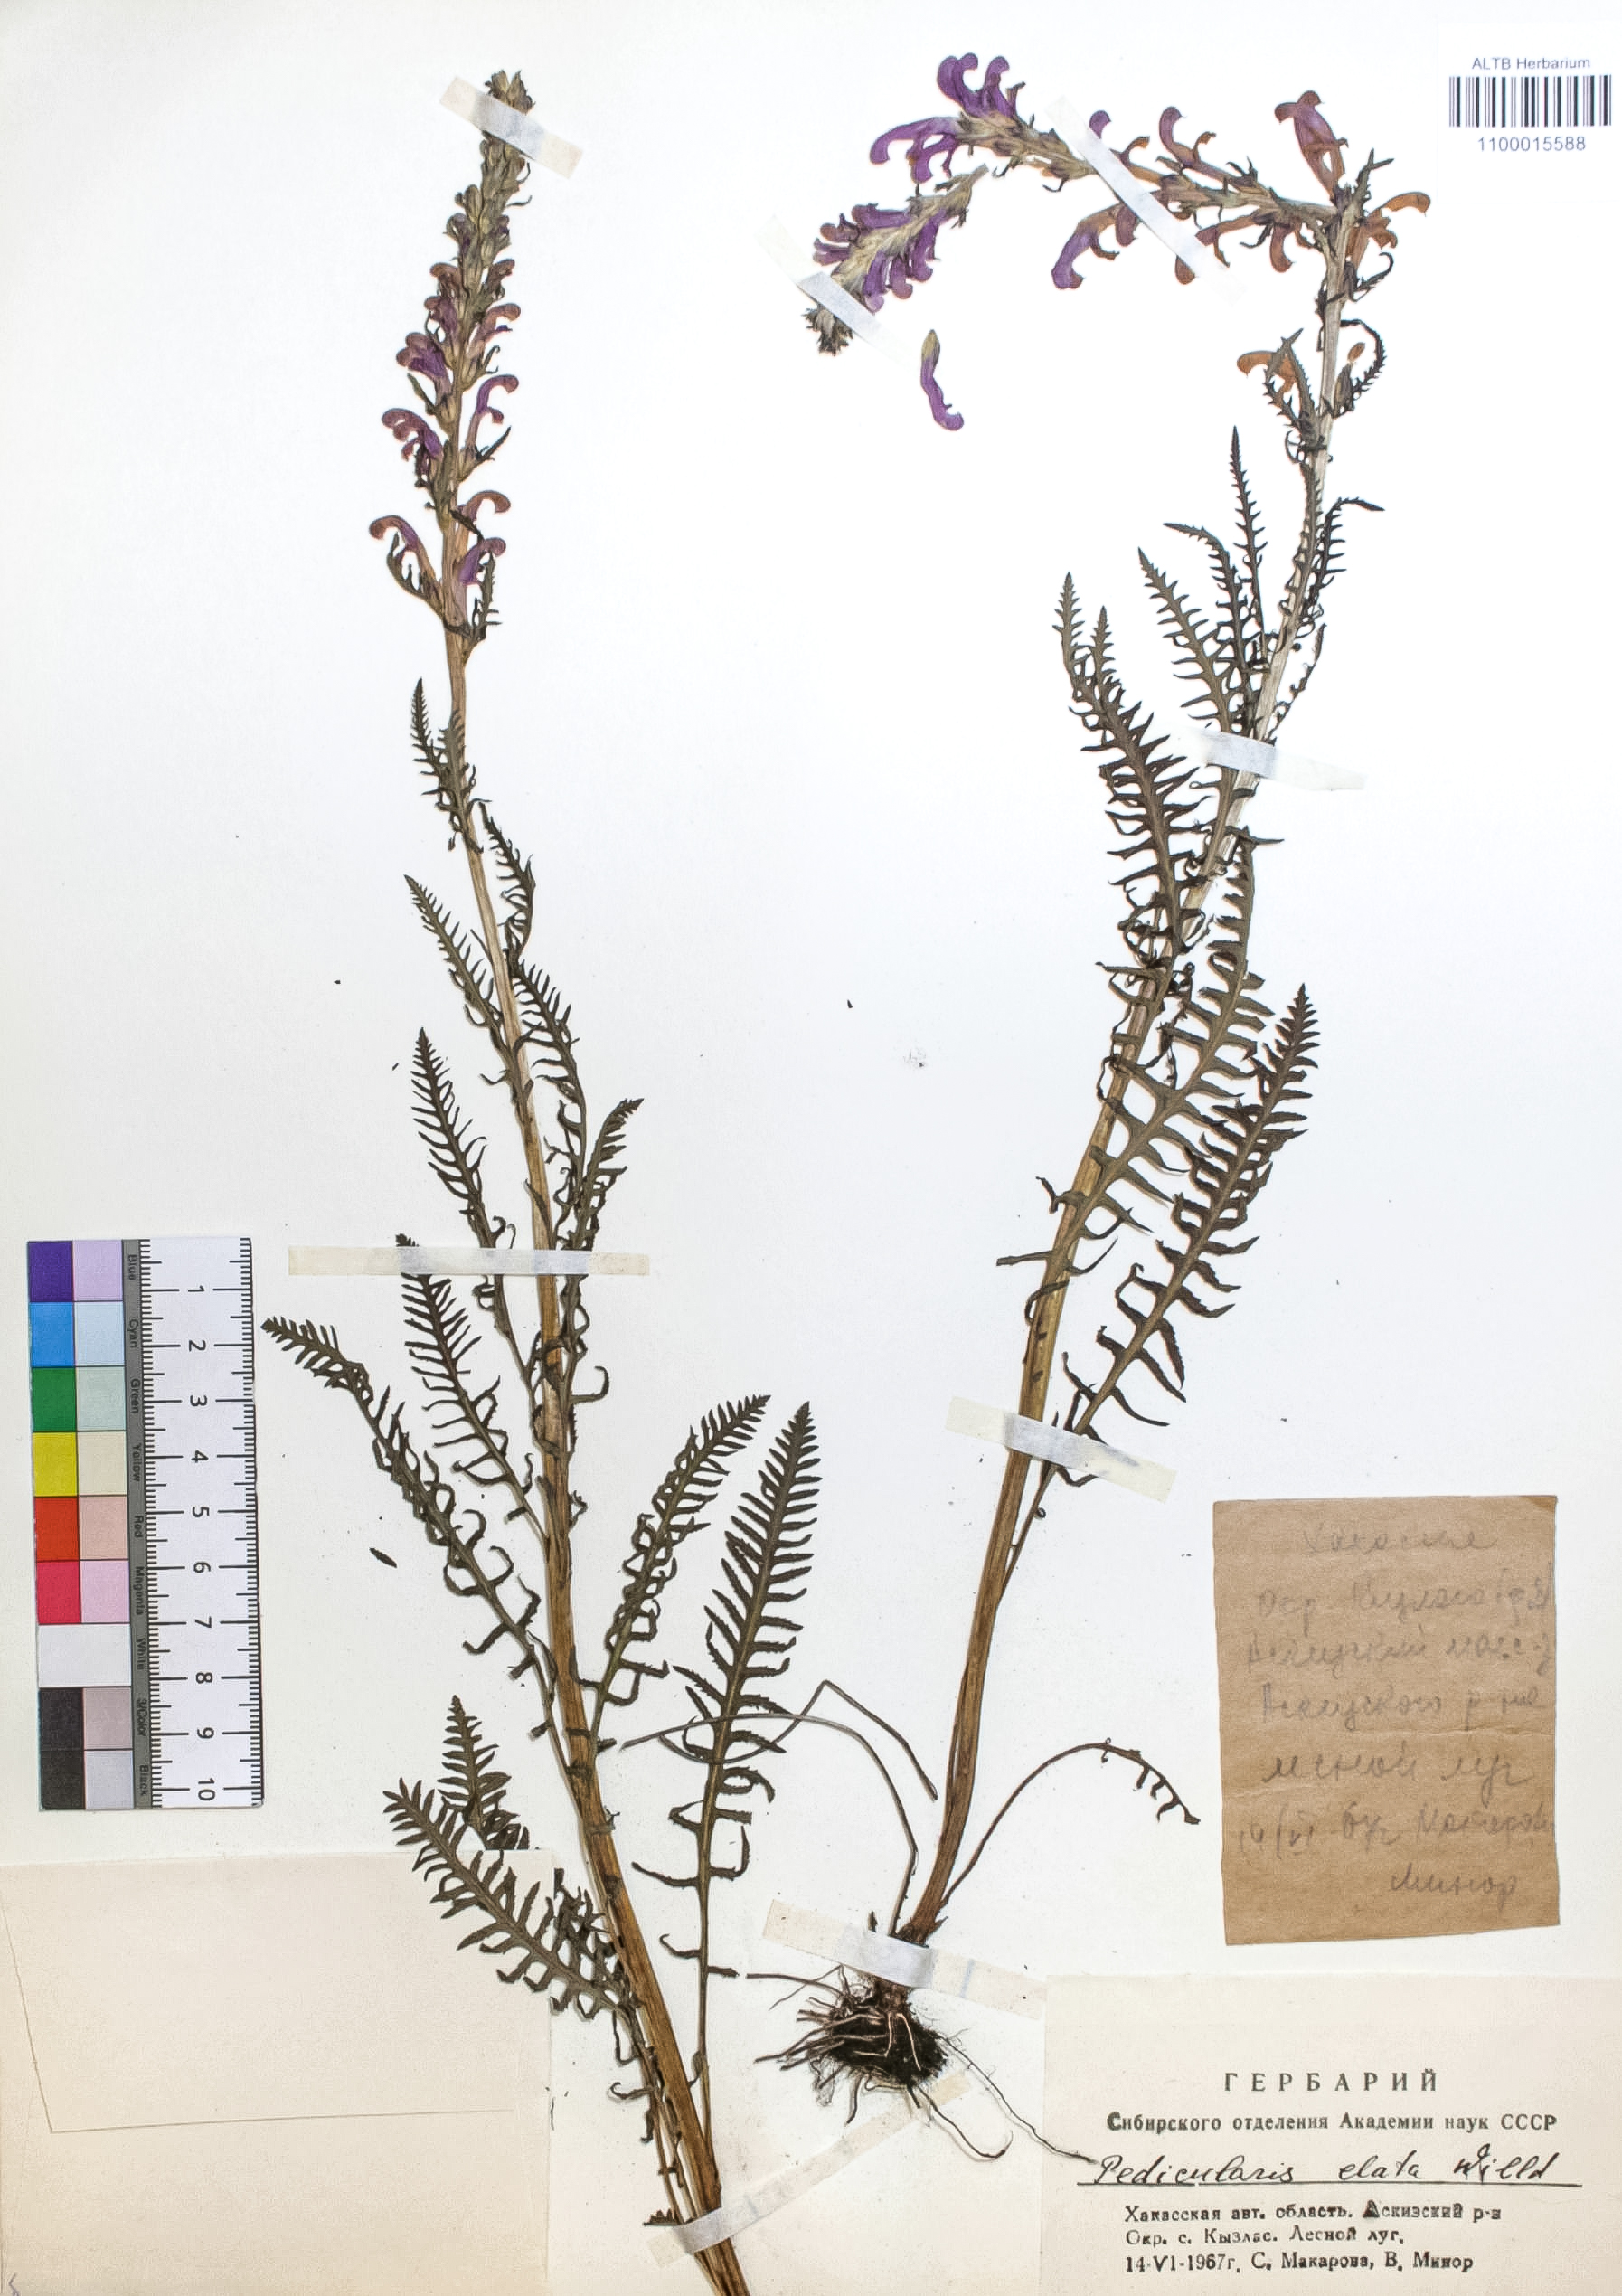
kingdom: Plantae
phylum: Tracheophyta
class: Magnoliopsida
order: Lamiales
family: Orobanchaceae
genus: Pedicularis
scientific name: Pedicularis elata
